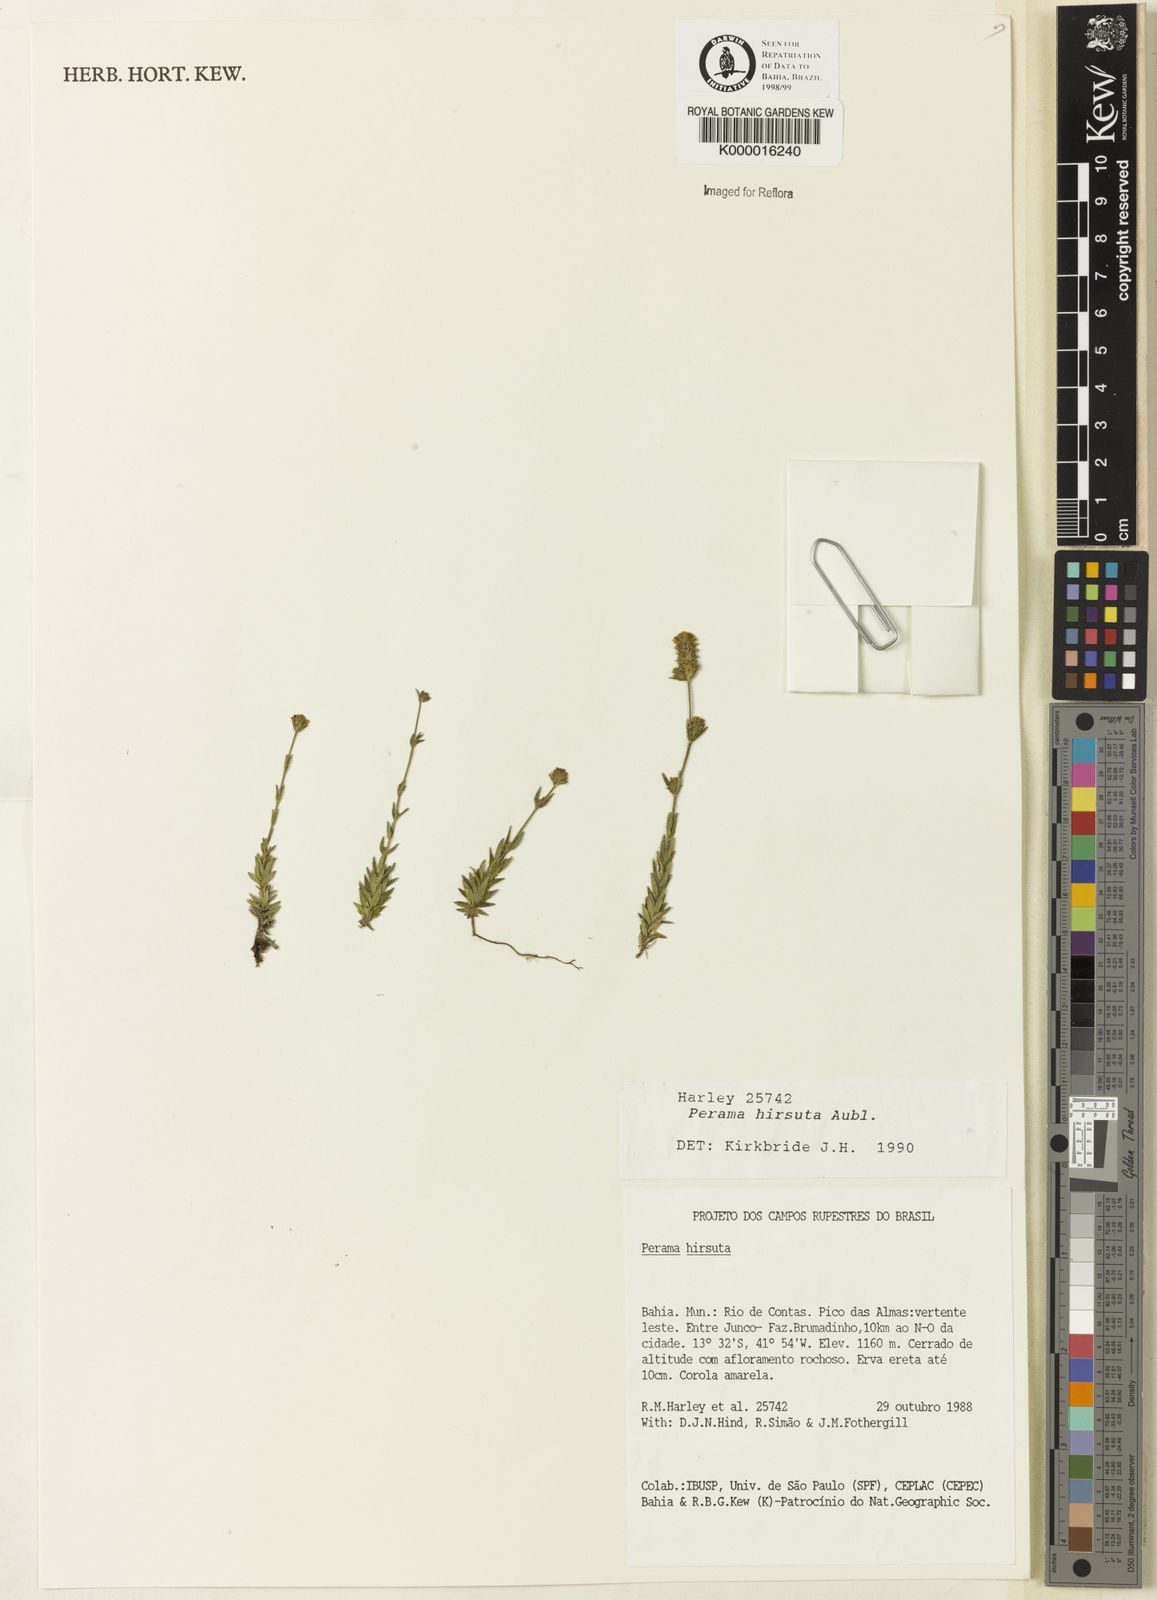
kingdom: Plantae
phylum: Tracheophyta
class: Magnoliopsida
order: Gentianales
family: Rubiaceae
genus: Perama
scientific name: Perama hirsuta
